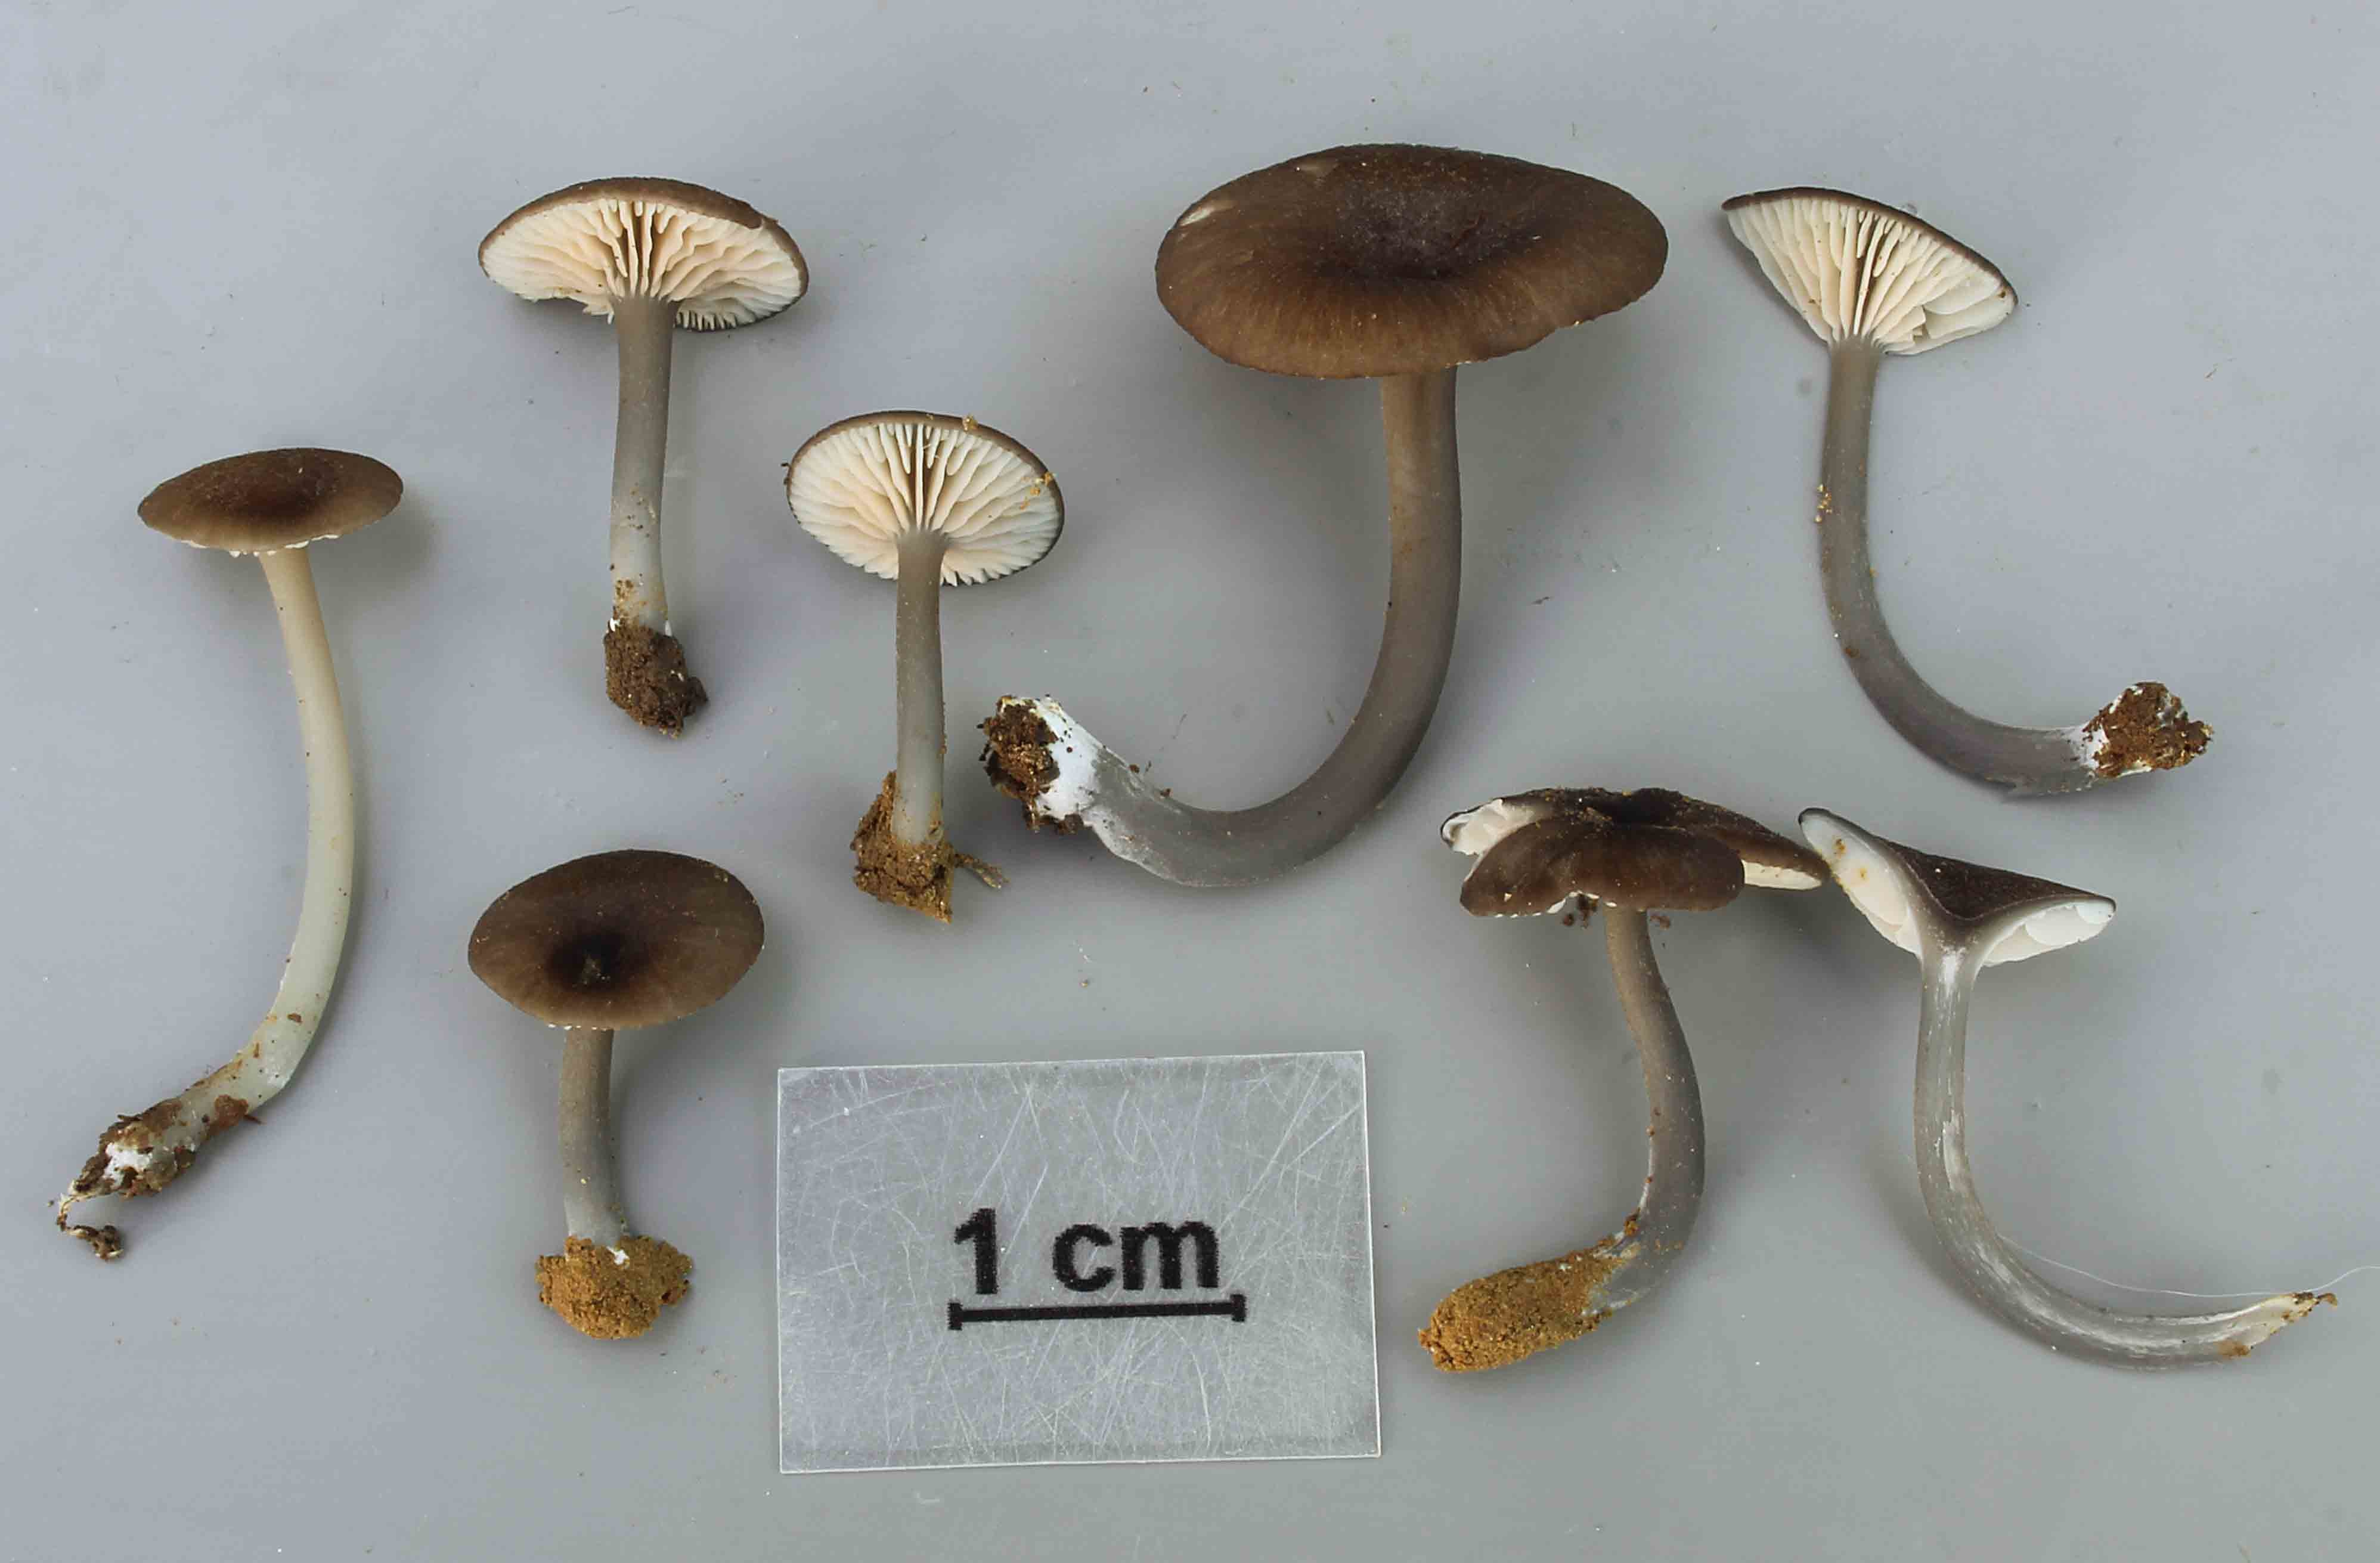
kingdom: Fungi
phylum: Basidiomycota
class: Agaricomycetes
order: Agaricales
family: Entolomataceae
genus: Entoloma
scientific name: Entoloma caeruleum
